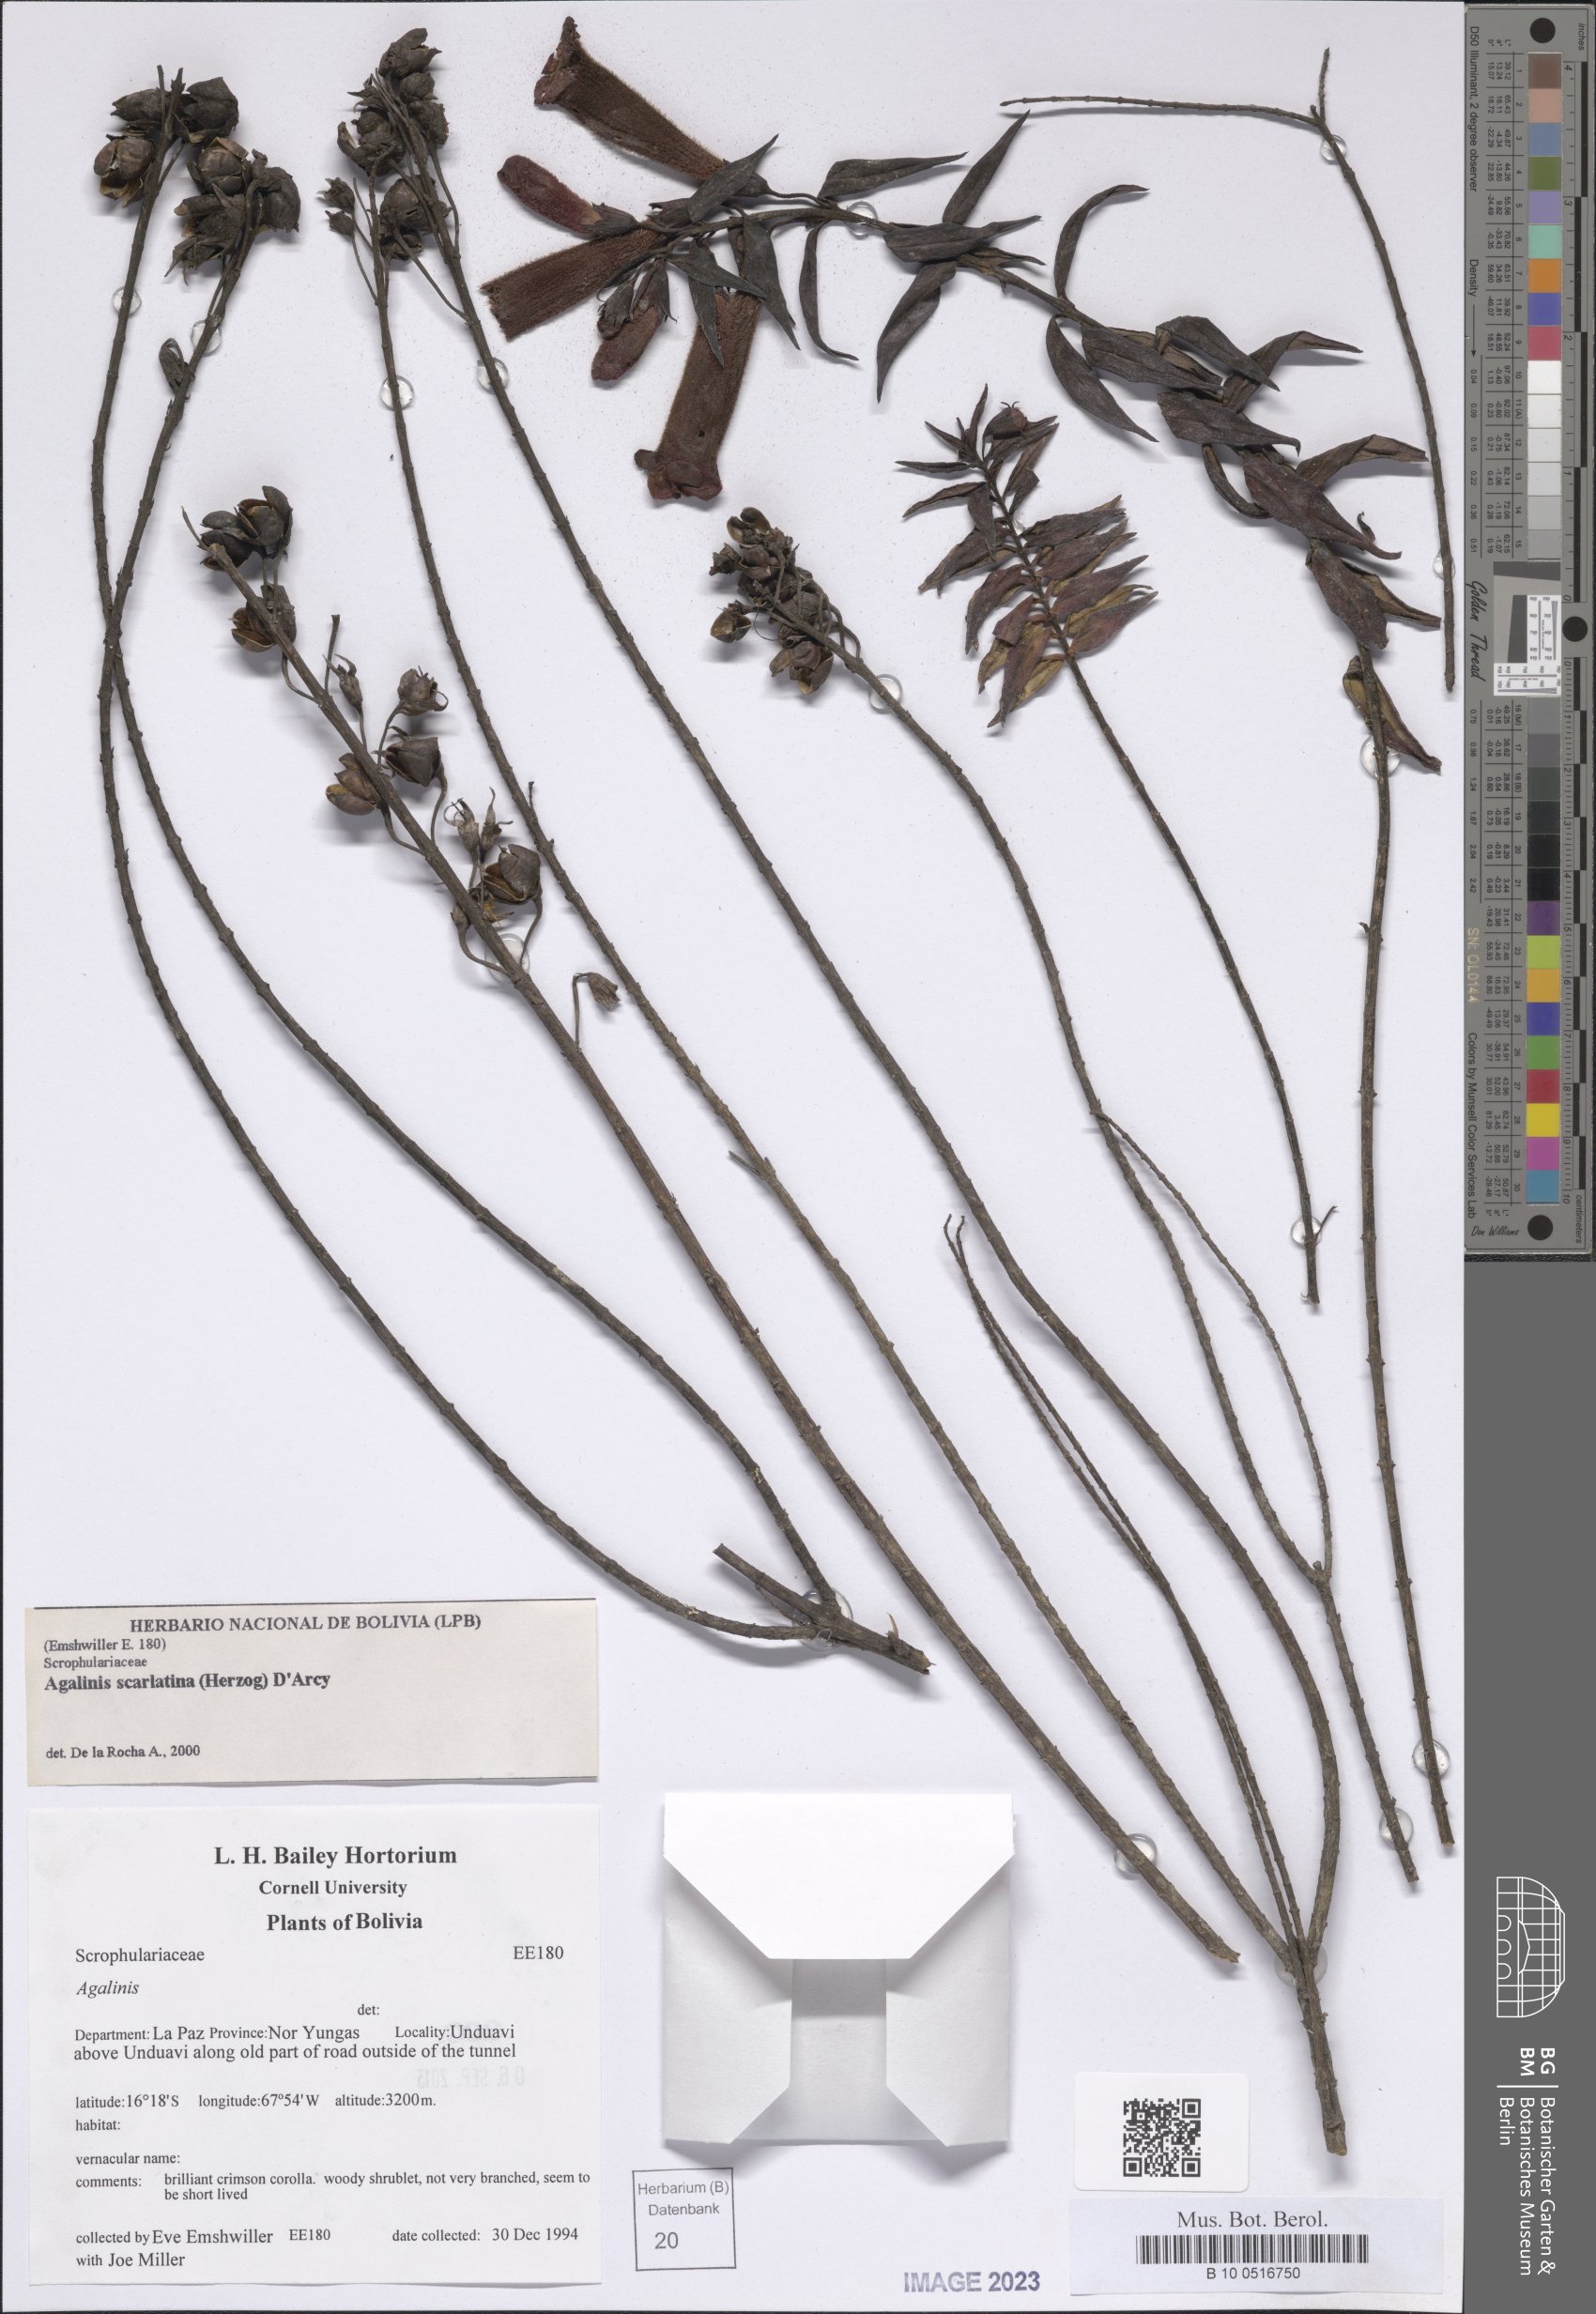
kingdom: Plantae
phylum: Tracheophyta
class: Magnoliopsida
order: Lamiales
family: Orobanchaceae
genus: Agalinis
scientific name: Agalinis scarlatina
